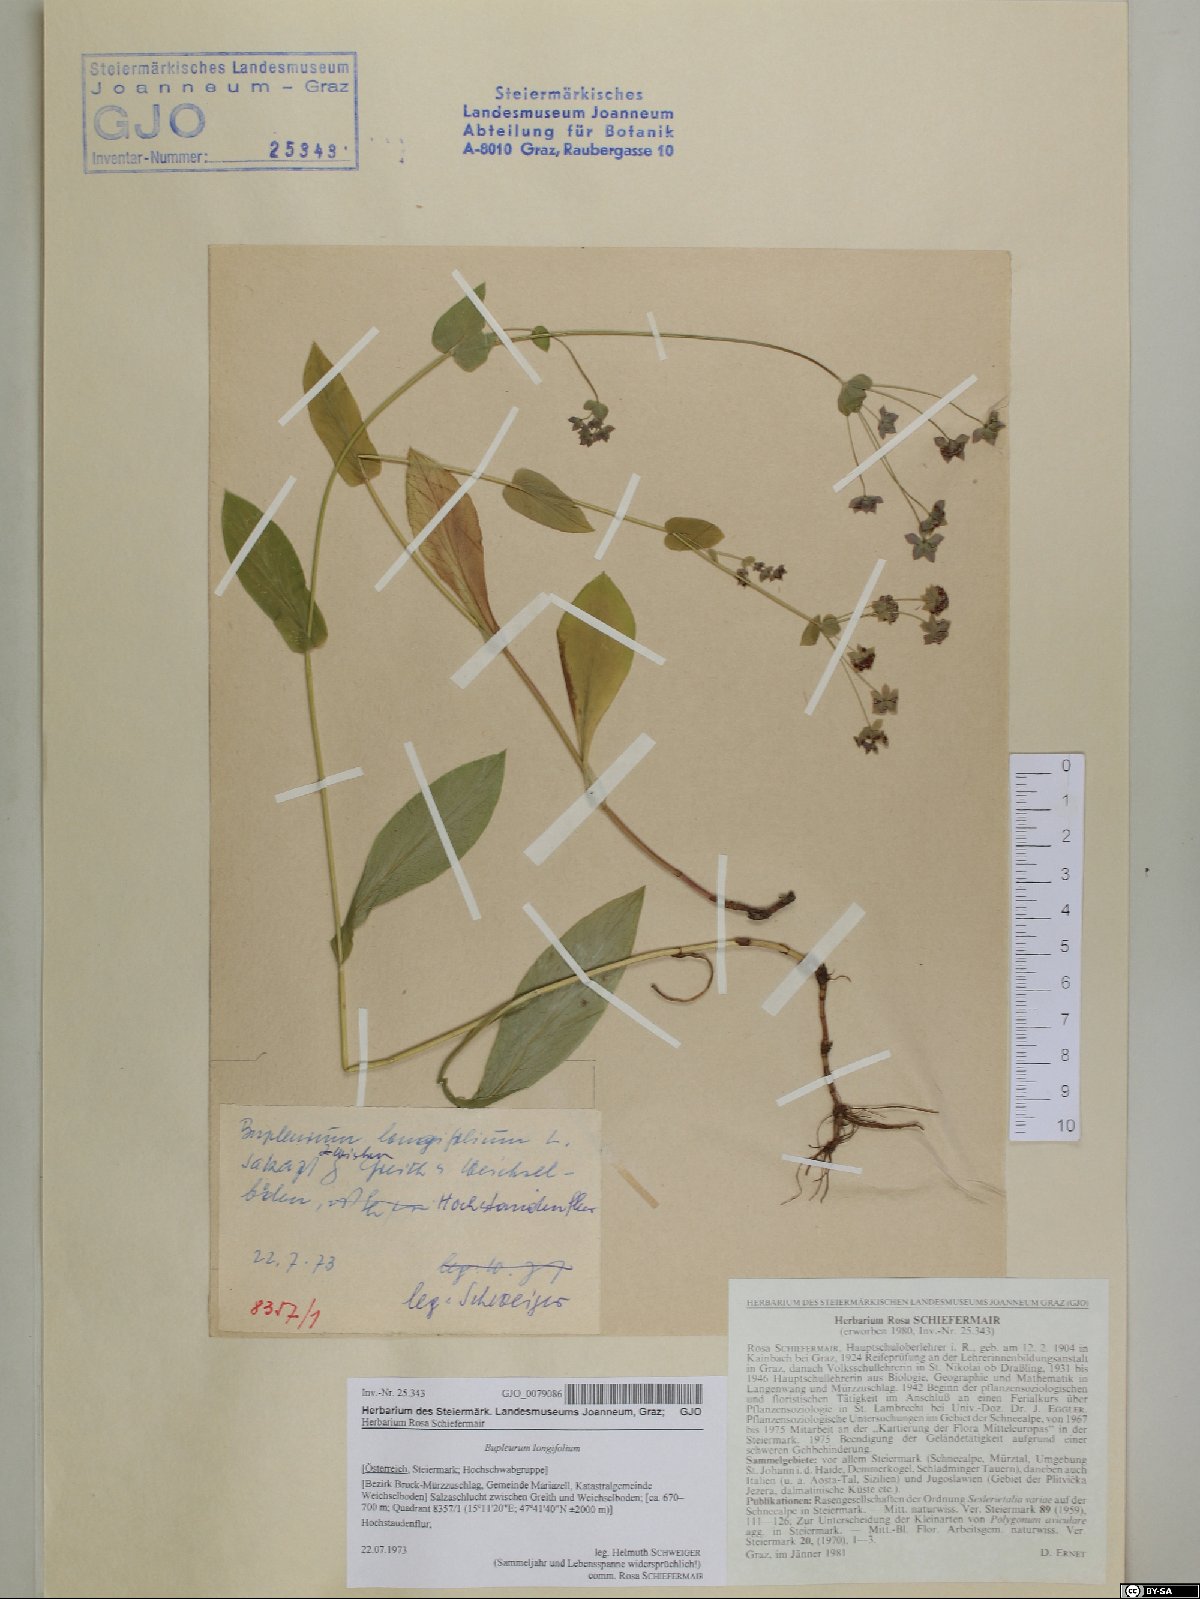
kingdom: Plantae
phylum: Tracheophyta
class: Magnoliopsida
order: Apiales
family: Apiaceae
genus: Bupleurum
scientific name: Bupleurum longifolium
